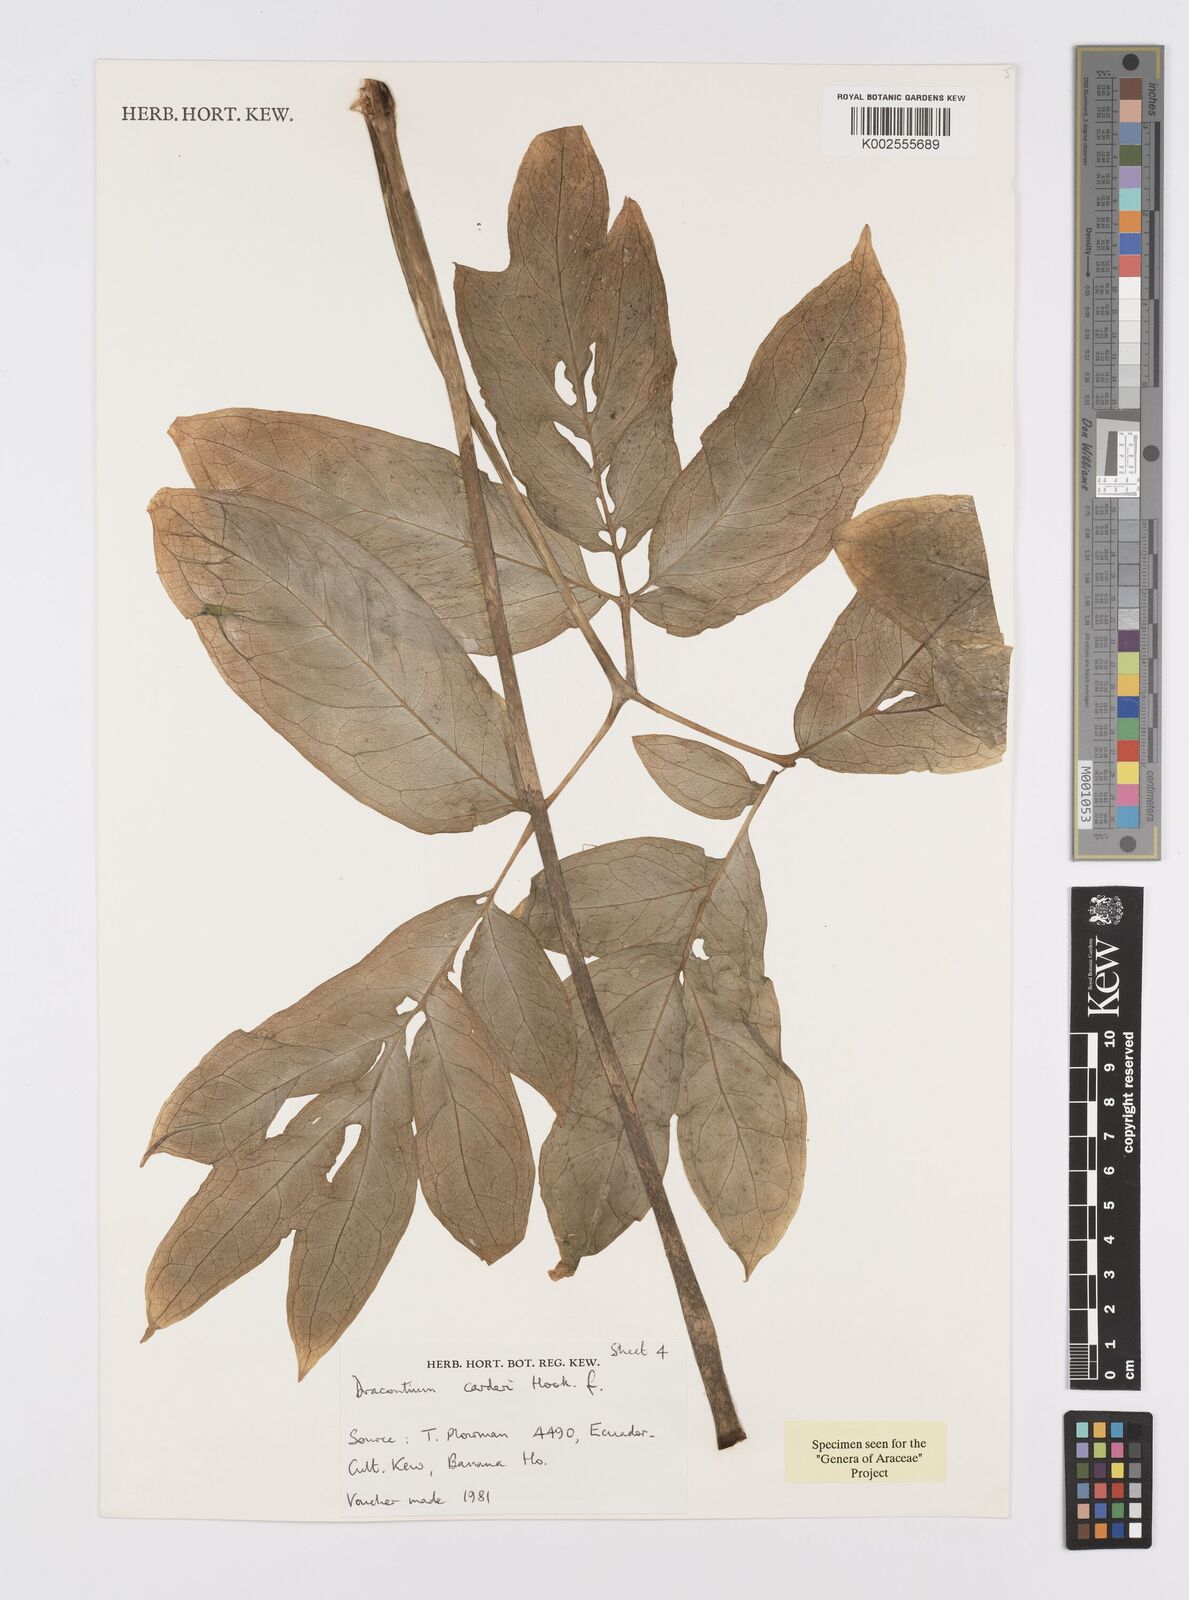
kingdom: Plantae
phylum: Tracheophyta
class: Liliopsida
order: Alismatales
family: Araceae
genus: Dracontium
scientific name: Dracontium spruceanum
